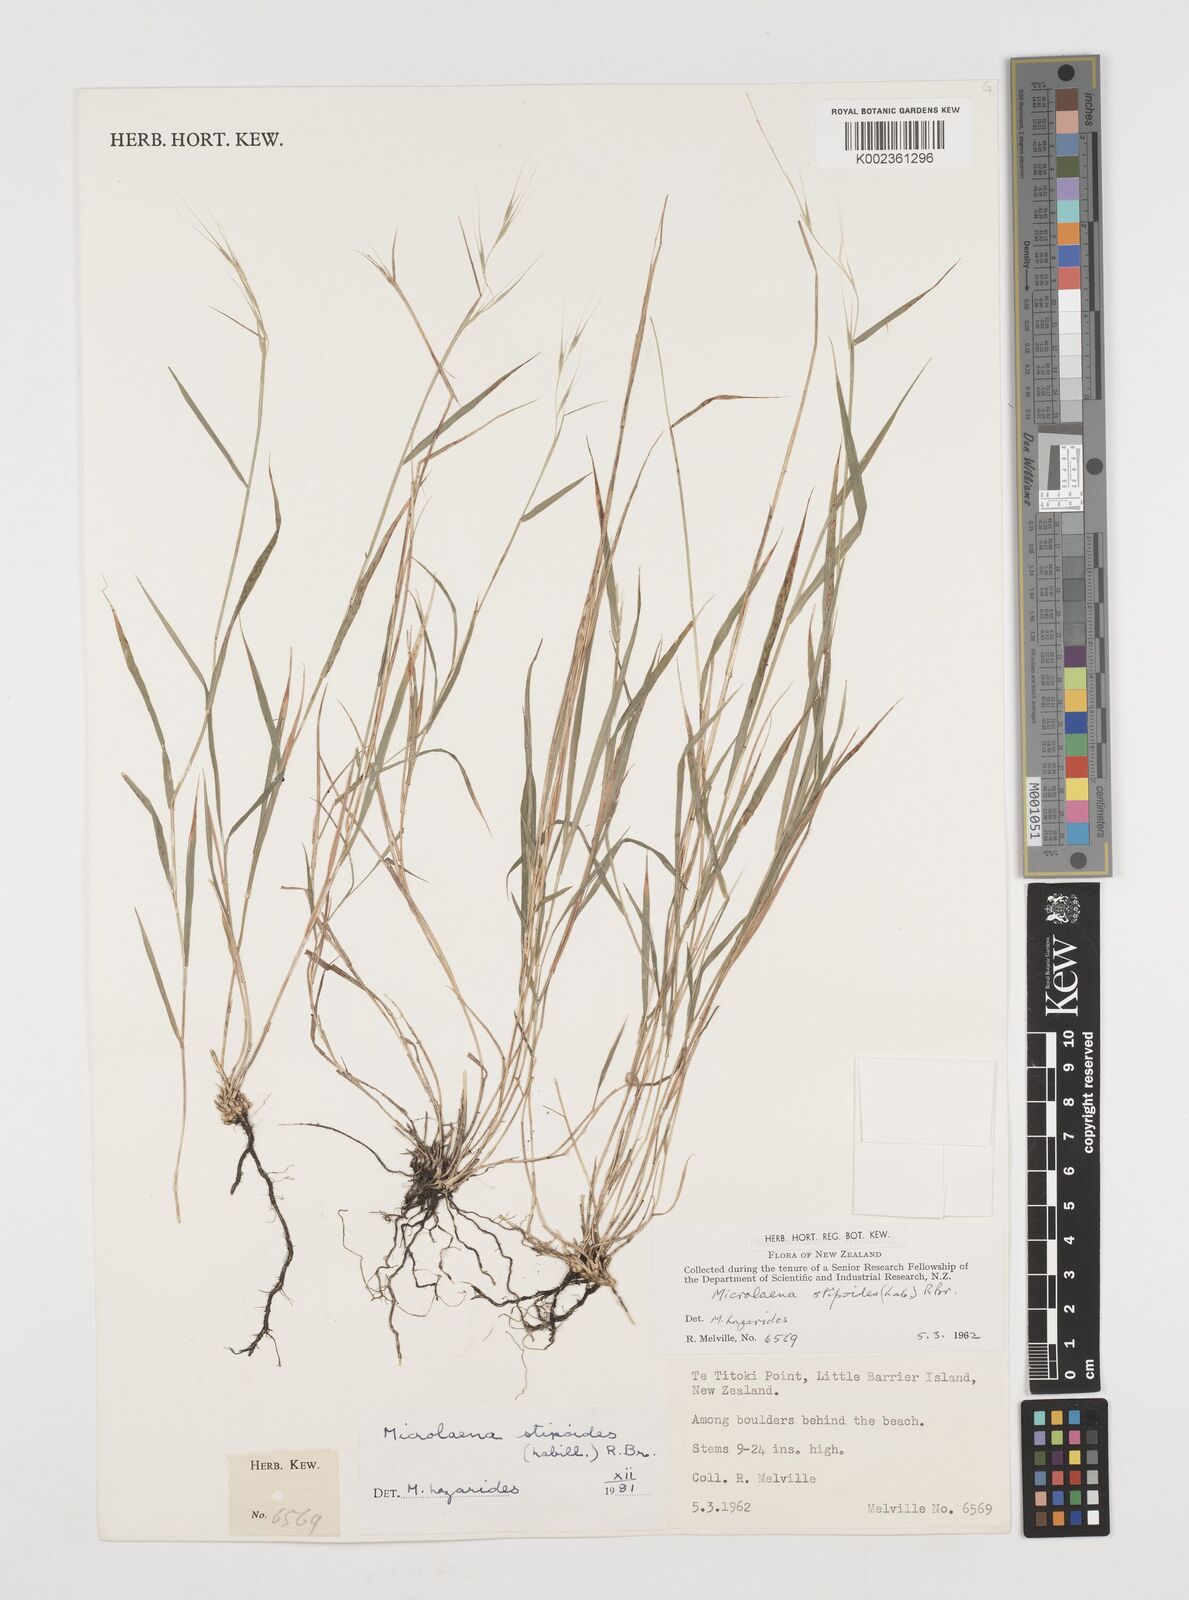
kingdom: Plantae
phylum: Tracheophyta
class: Liliopsida
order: Poales
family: Poaceae
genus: Microlaena
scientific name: Microlaena stipoides
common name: Meadow ricegrass
